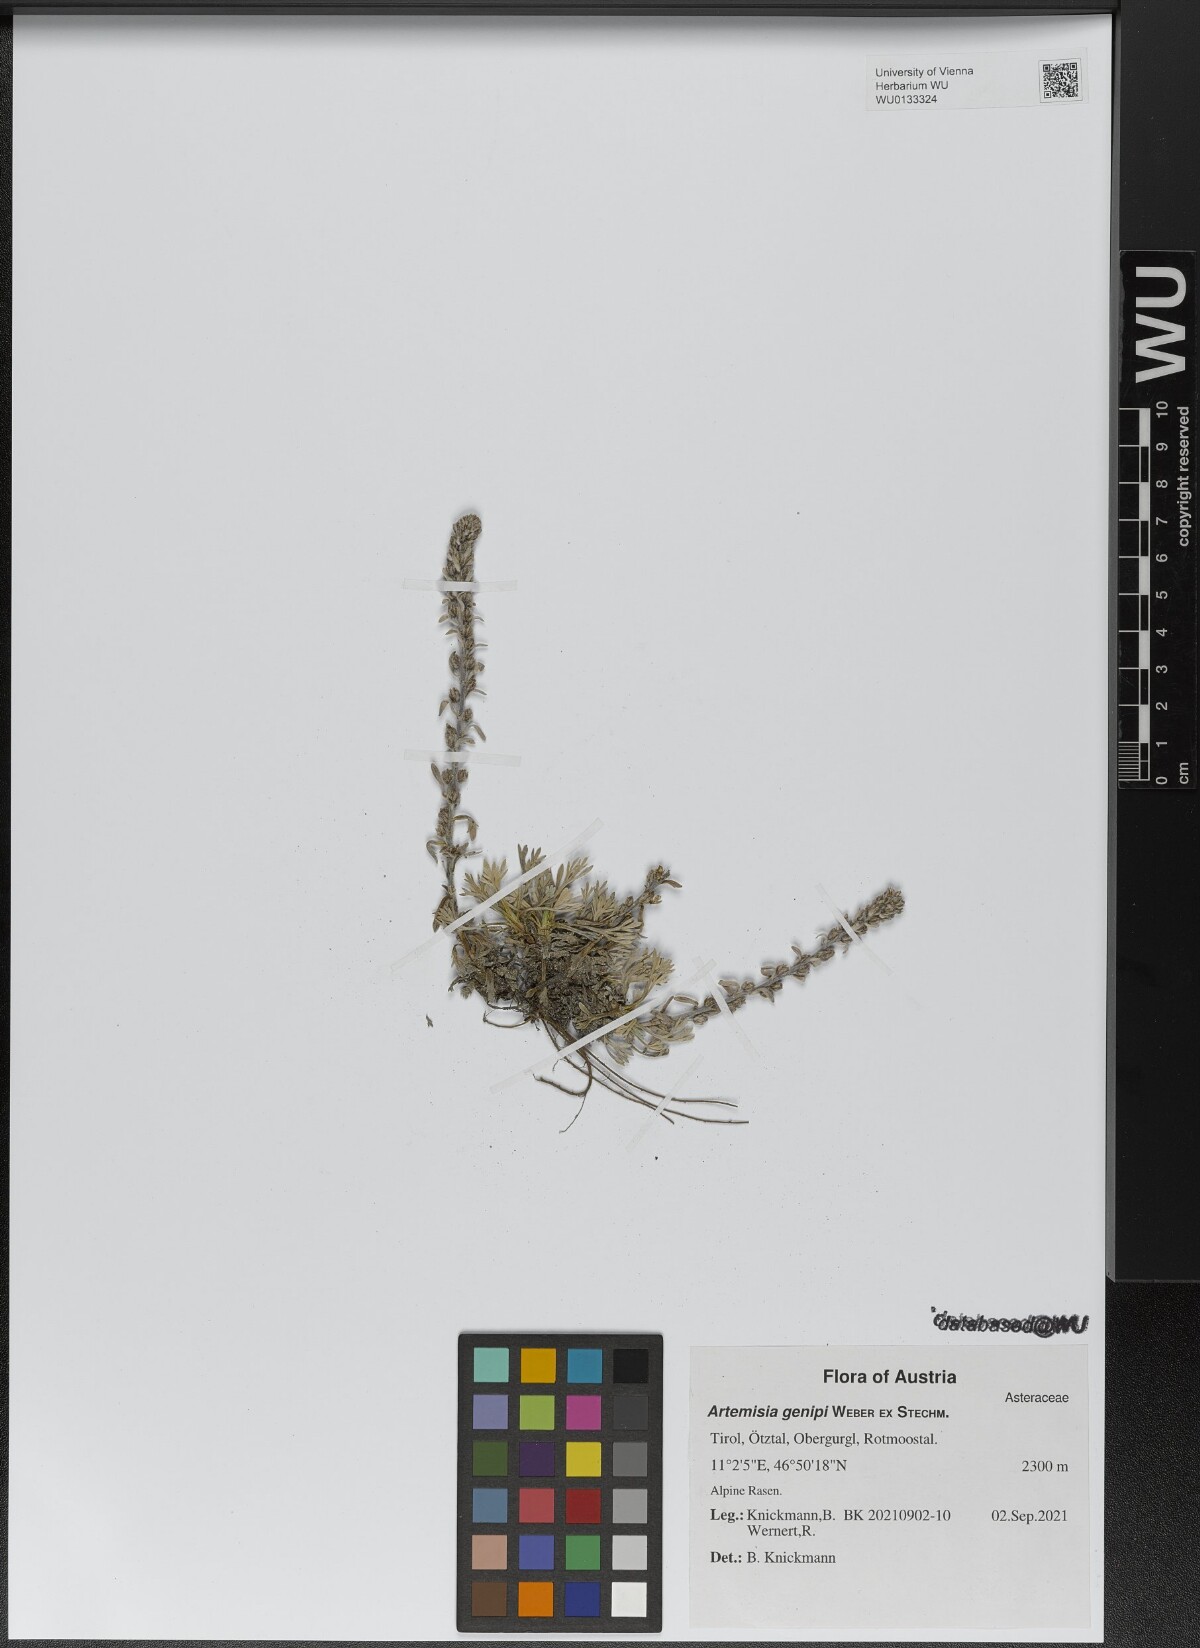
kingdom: Plantae
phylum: Tracheophyta
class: Magnoliopsida
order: Asterales
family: Asteraceae
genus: Artemisia
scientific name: Artemisia genipi
